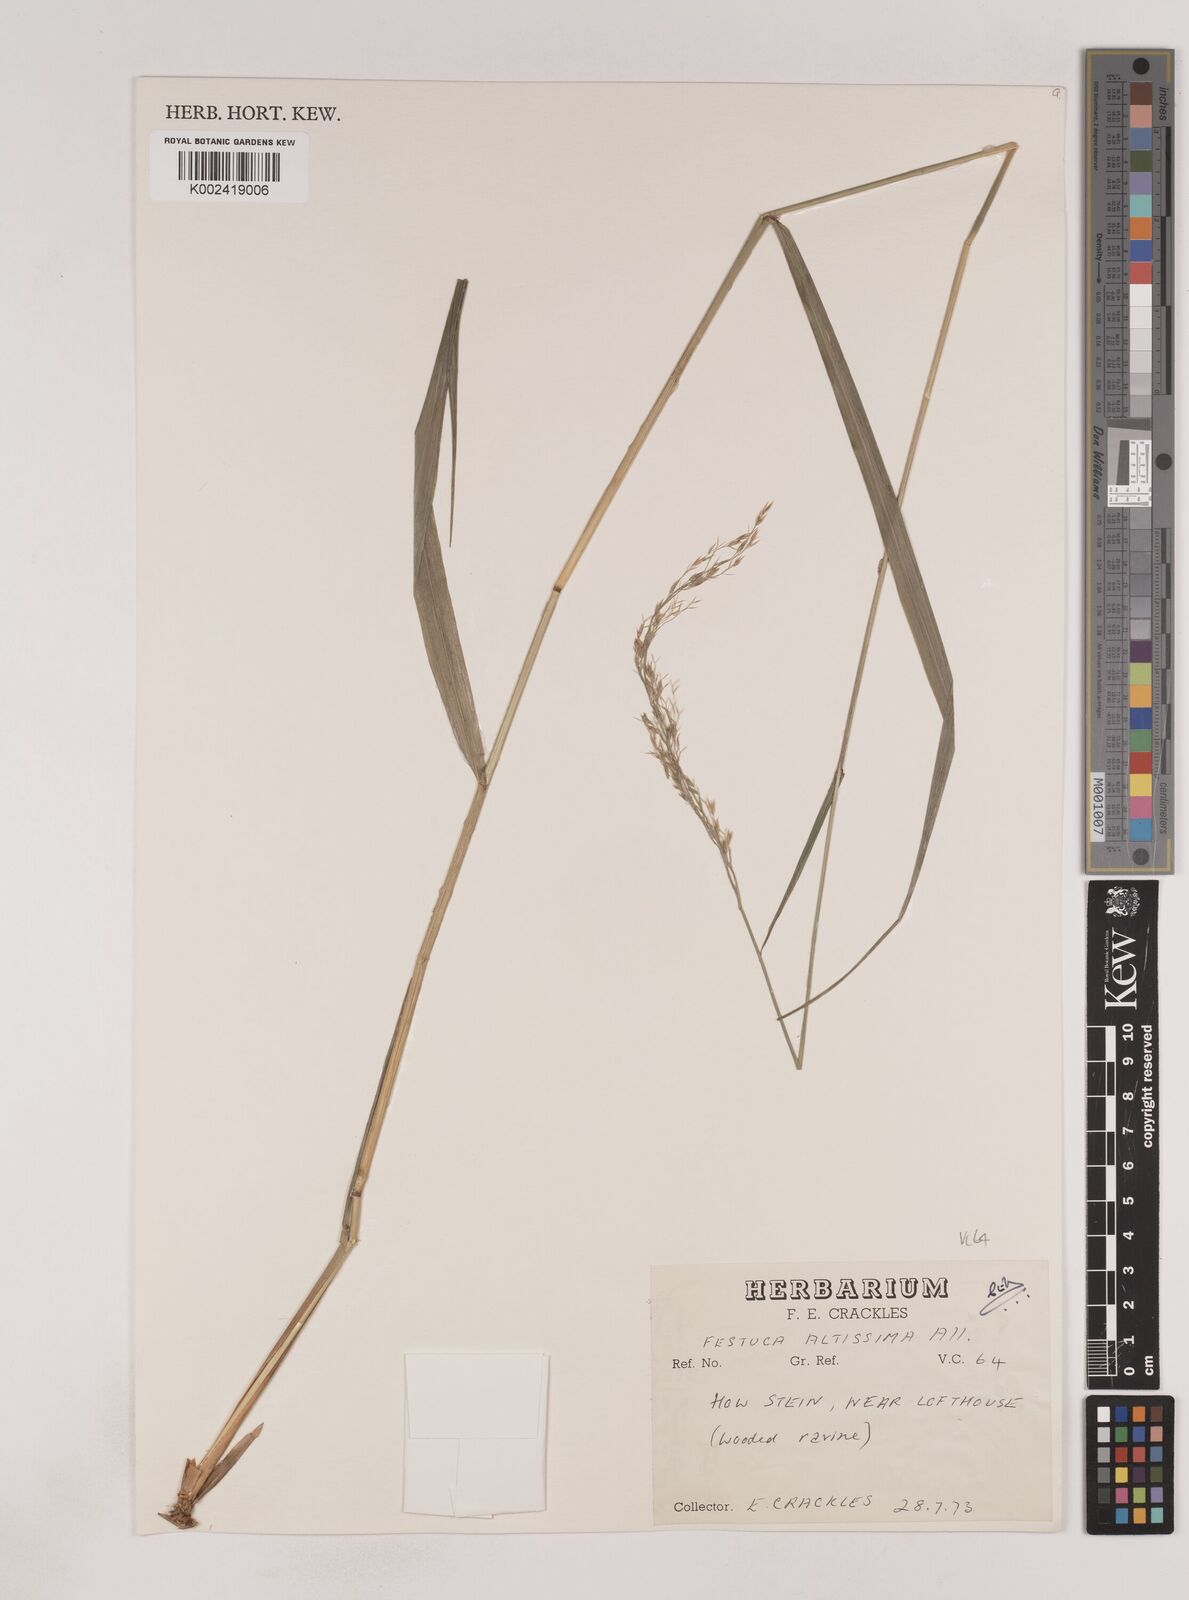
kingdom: Plantae
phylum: Tracheophyta
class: Liliopsida
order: Poales
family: Poaceae
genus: Festuca
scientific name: Festuca drymeja
